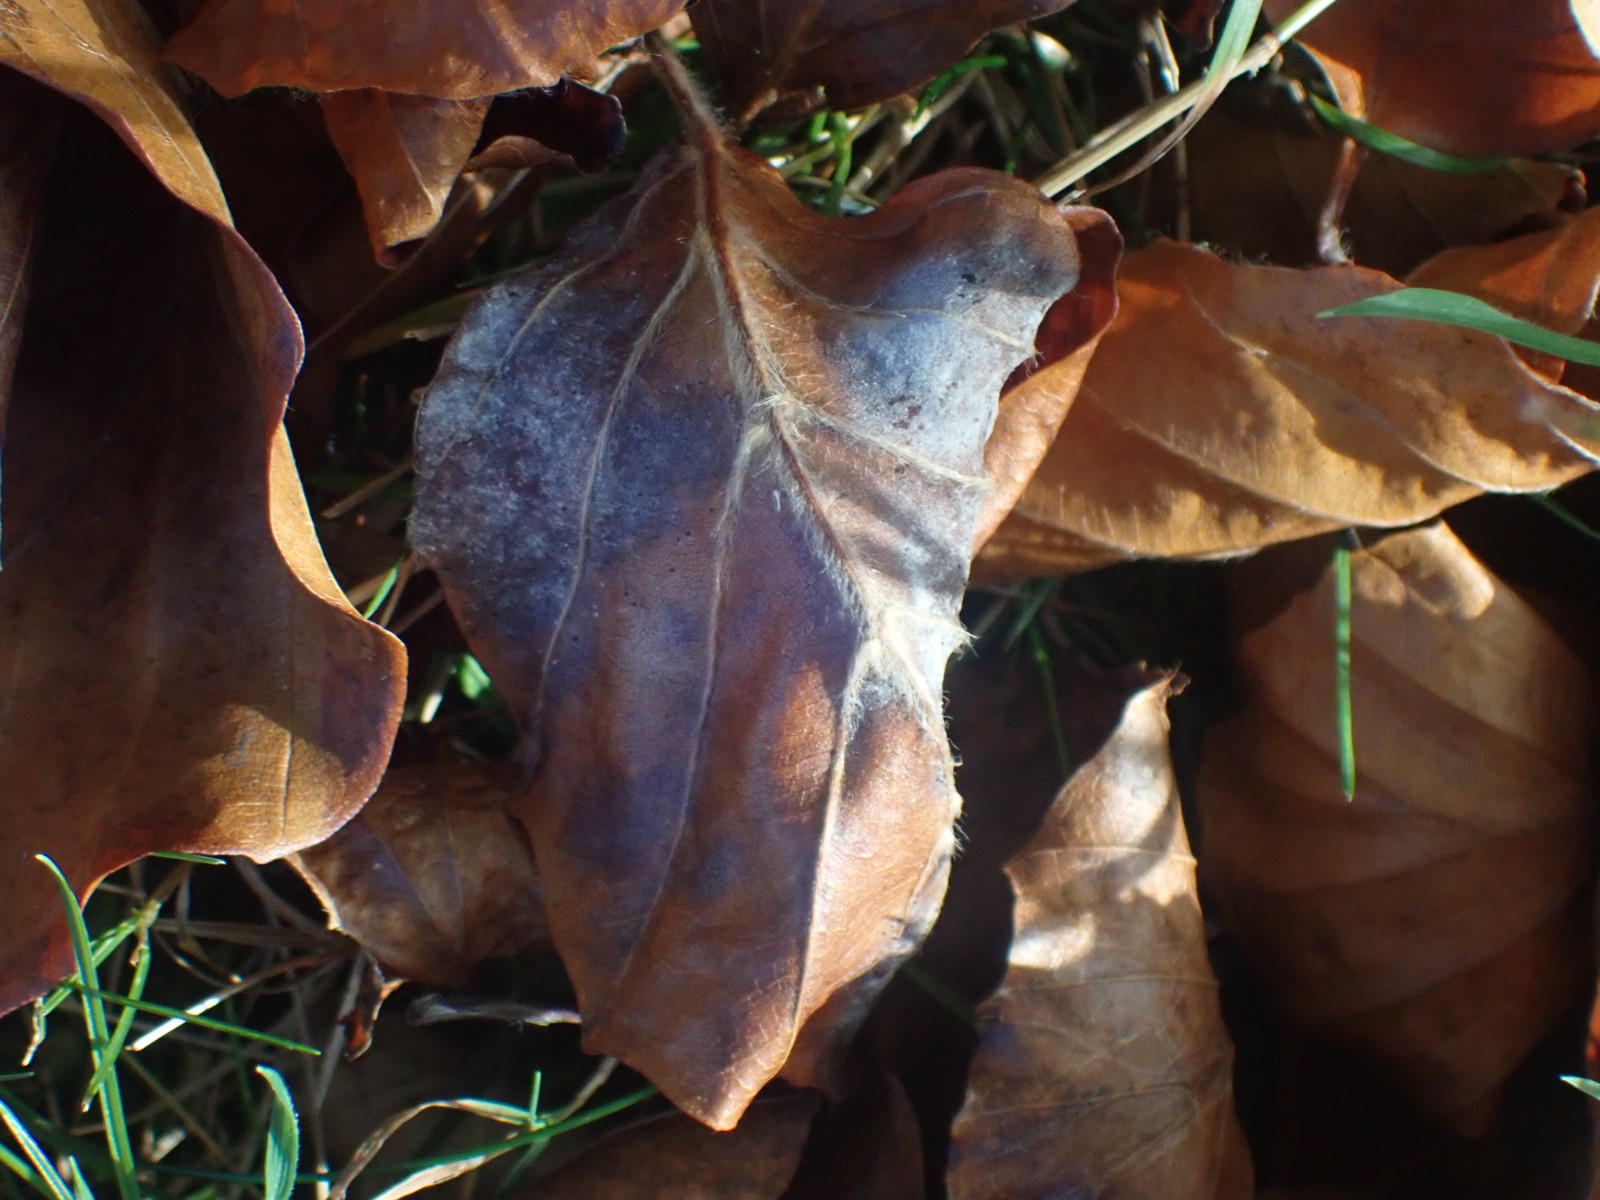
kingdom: Fungi
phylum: Ascomycota
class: Leotiomycetes
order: Helotiales
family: Erysiphaceae
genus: Phyllactinia
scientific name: Phyllactinia orbicularis
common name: bøge-meldug
